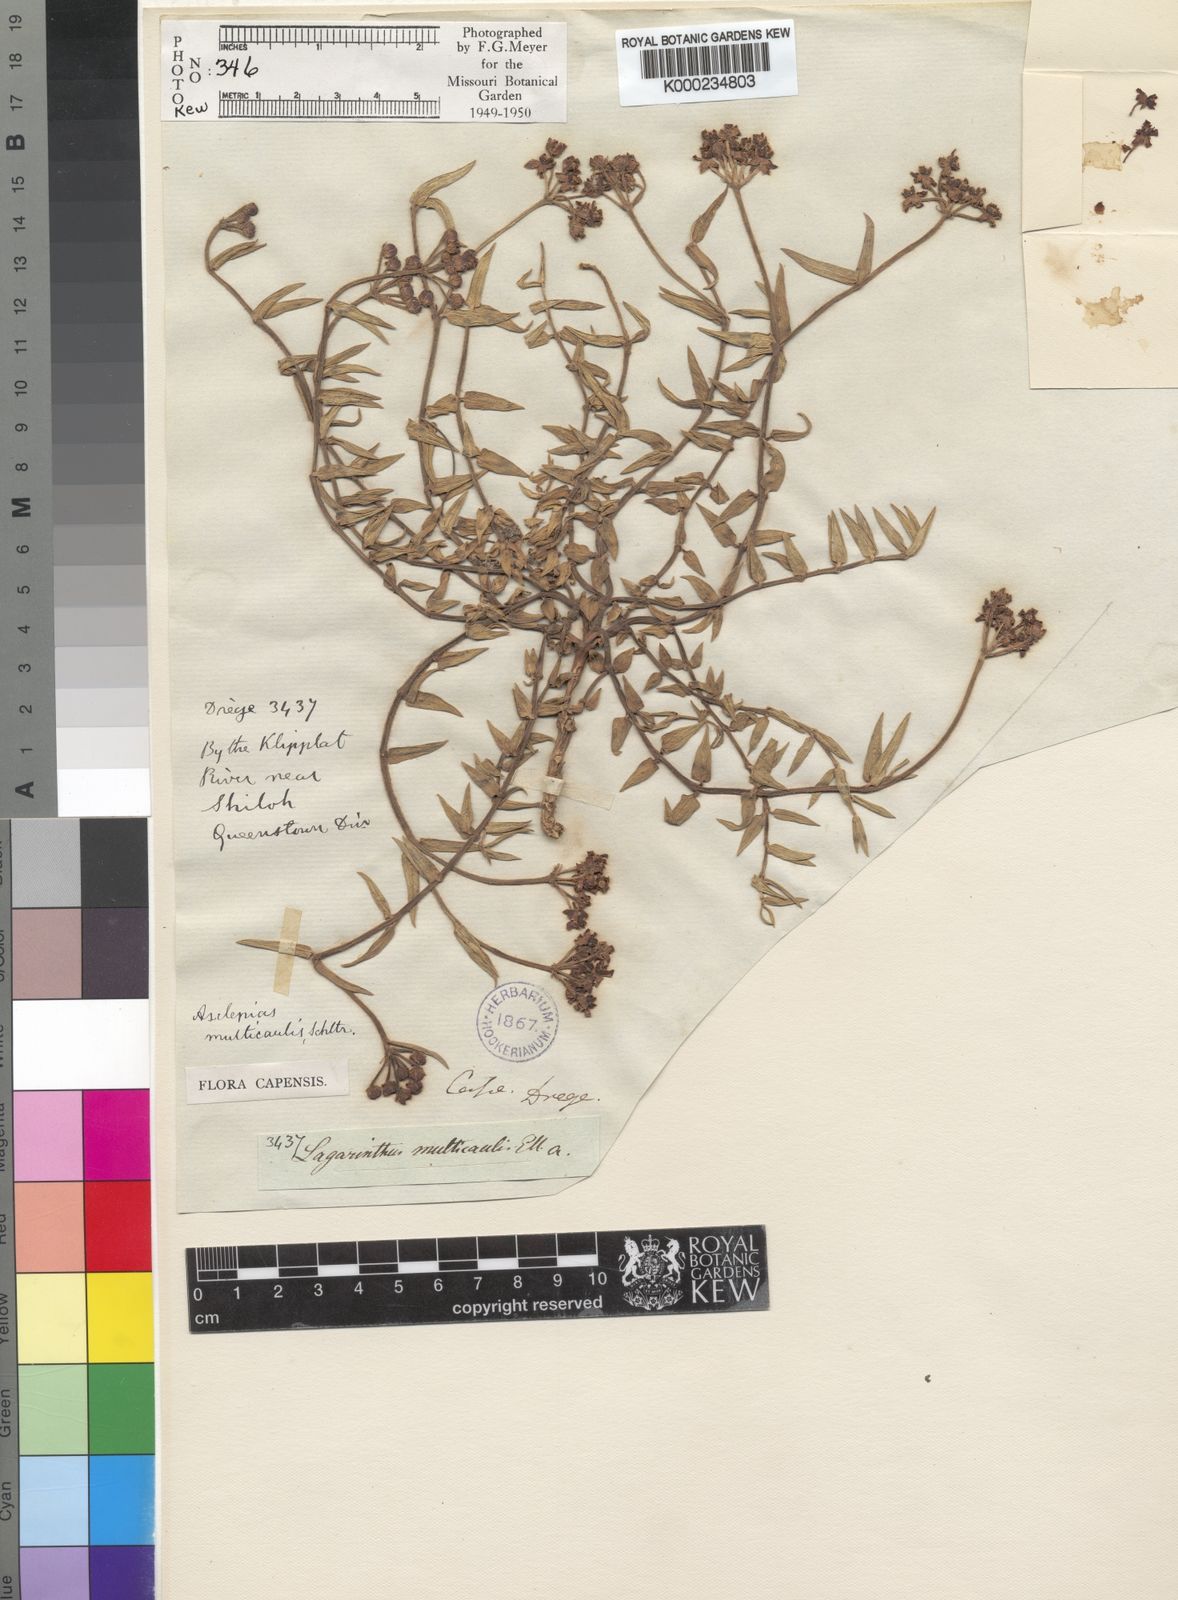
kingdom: Plantae
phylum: Tracheophyta
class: Magnoliopsida
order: Gentianales
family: Apocynaceae
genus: Asclepias
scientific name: Asclepias depressa
